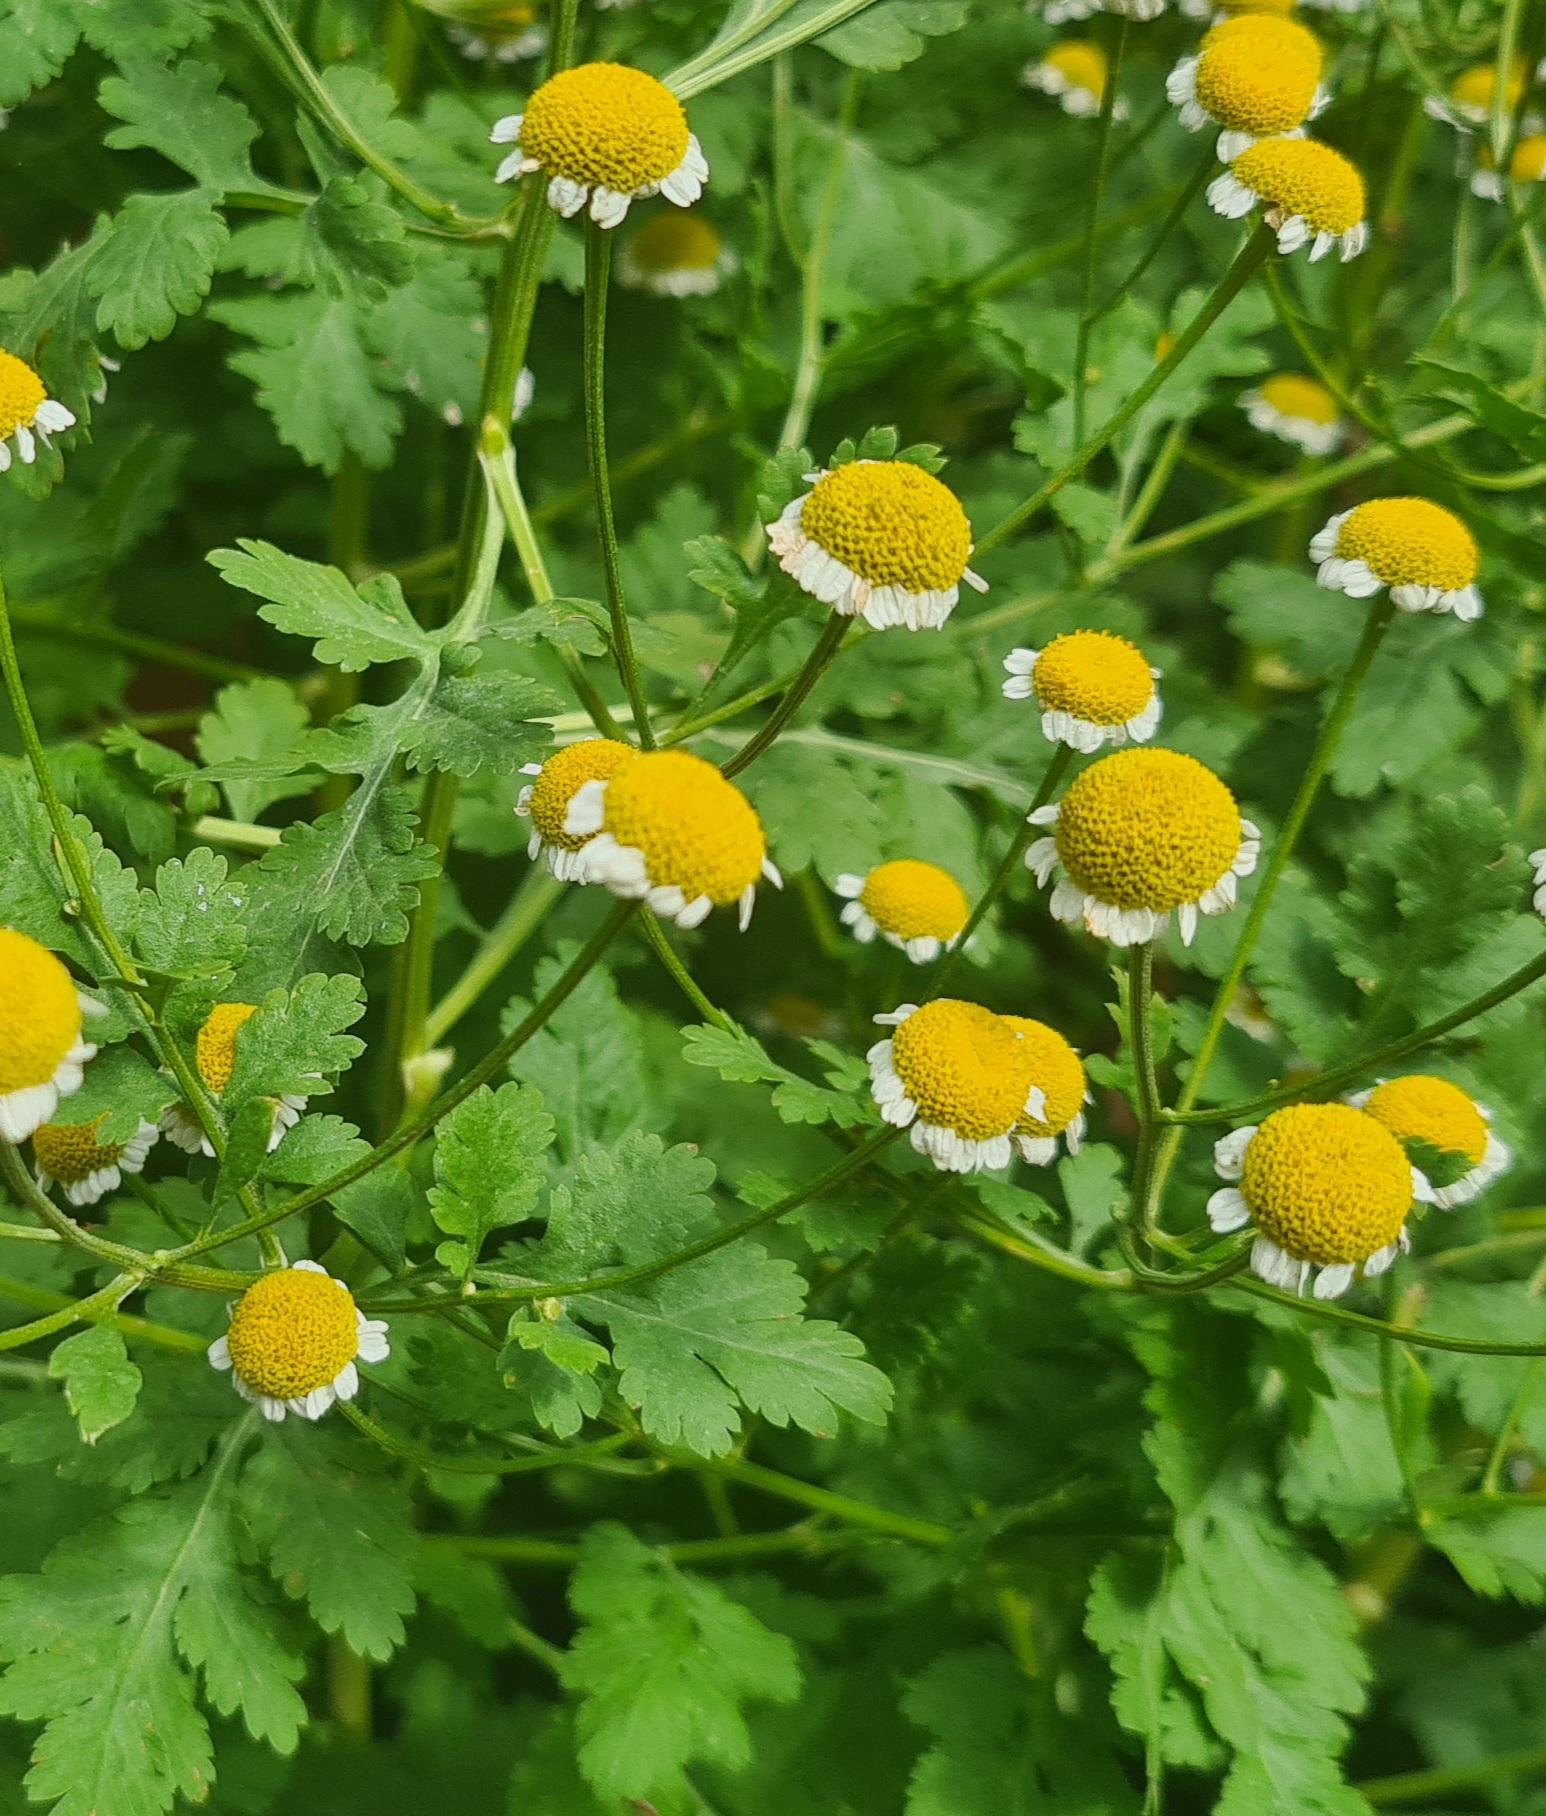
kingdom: Plantae
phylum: Tracheophyta
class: Magnoliopsida
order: Asterales
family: Asteraceae
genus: Tanacetum
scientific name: Tanacetum parthenium
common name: Matrem
